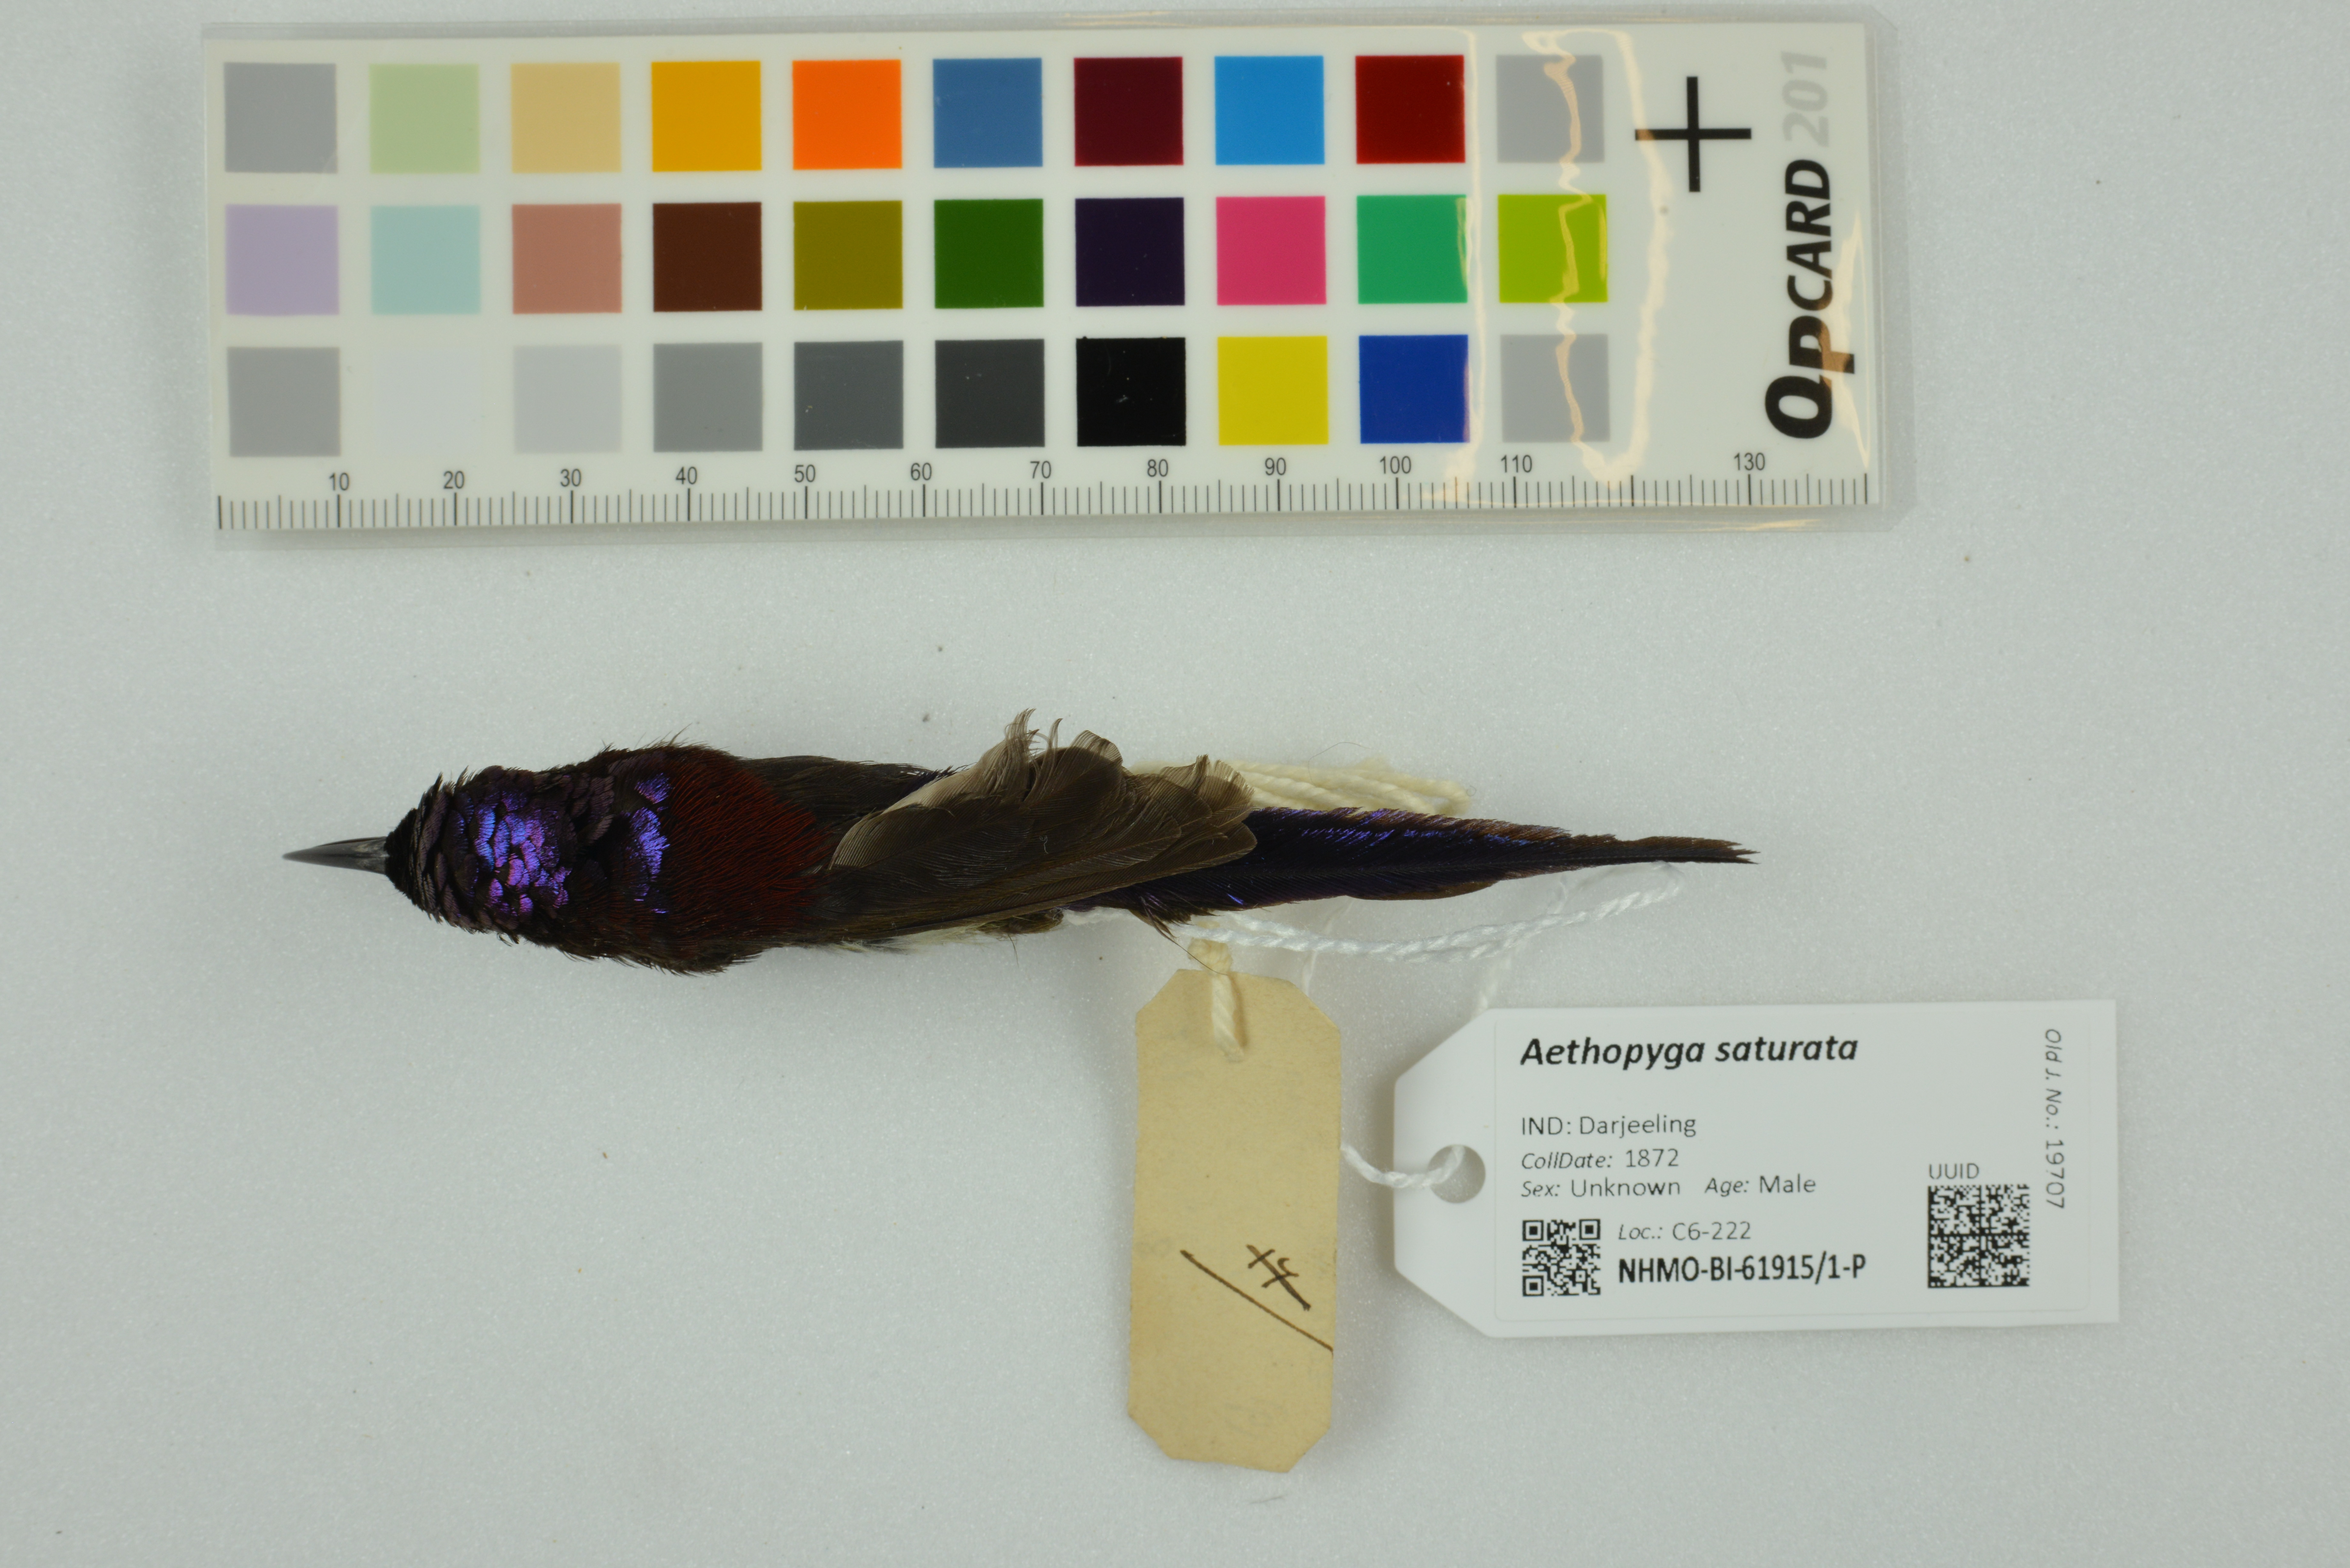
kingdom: Animalia
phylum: Chordata
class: Aves
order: Passeriformes
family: Nectariniidae
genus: Aethopyga
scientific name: Aethopyga saturata
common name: Black-throated sunbird
